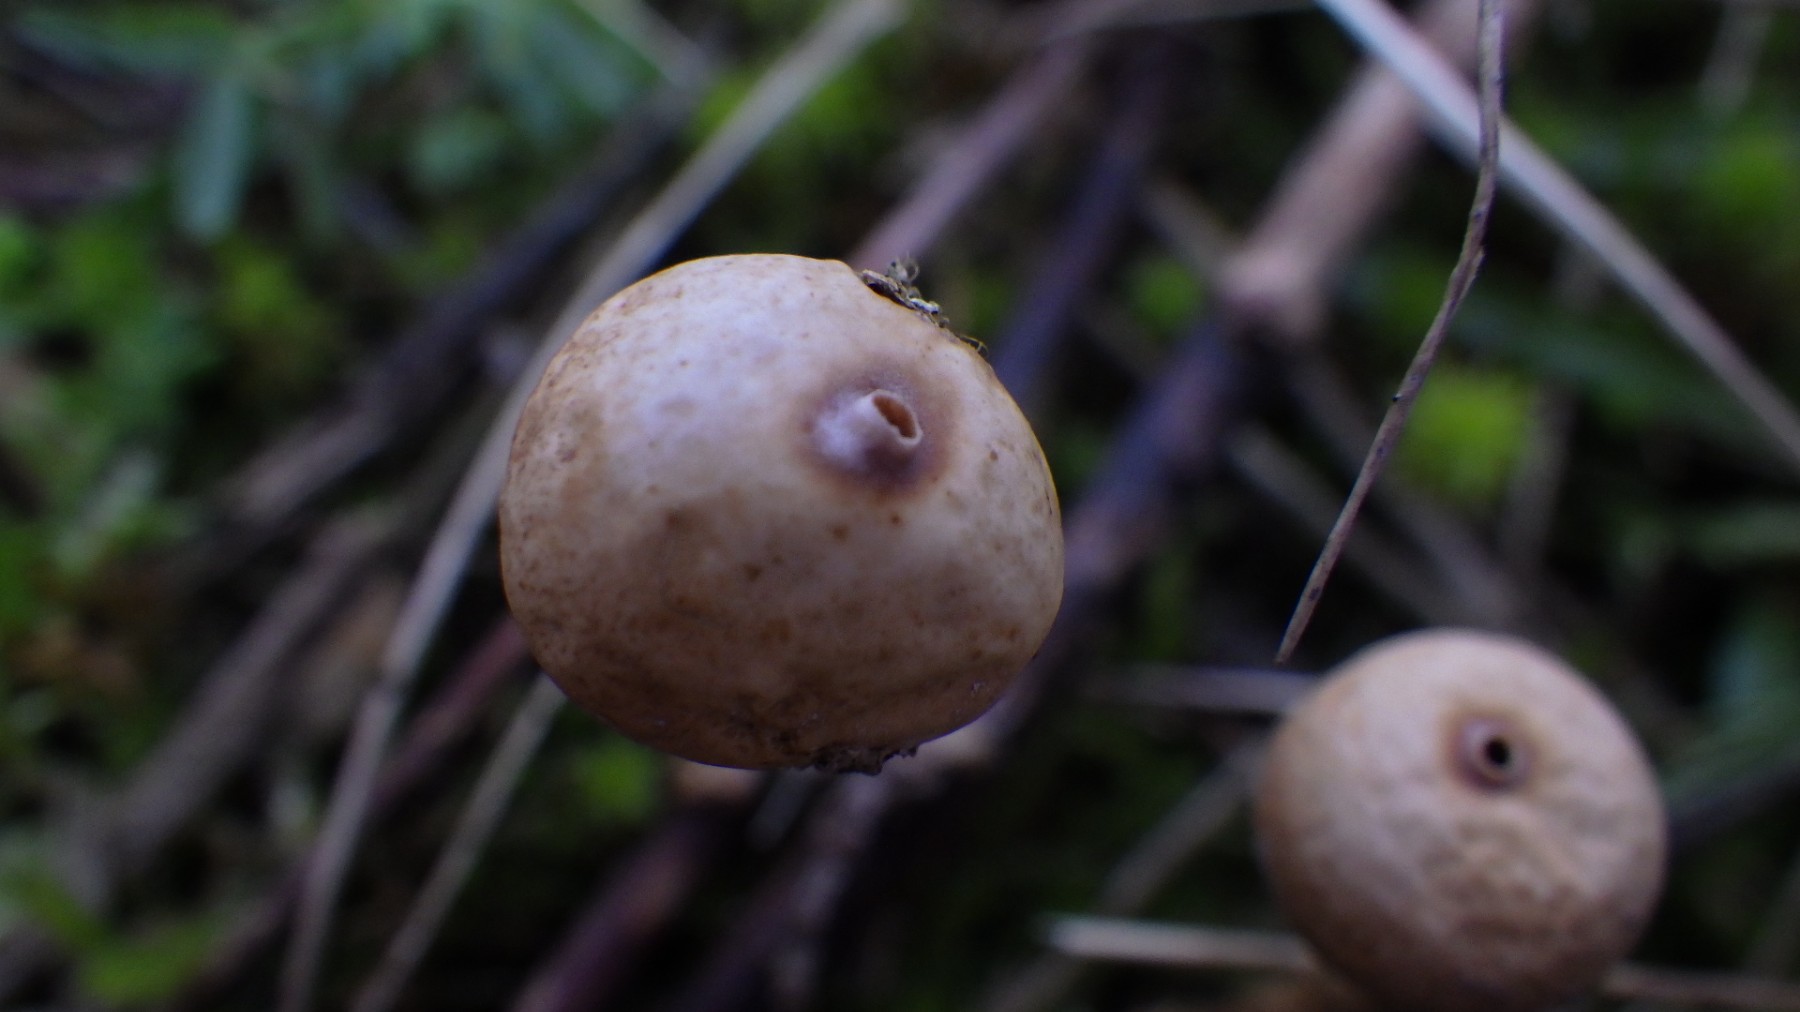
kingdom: Fungi
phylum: Basidiomycota
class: Agaricomycetes
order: Agaricales
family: Agaricaceae
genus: Tulostoma
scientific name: Tulostoma brumale
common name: vinter-stilkbovist
